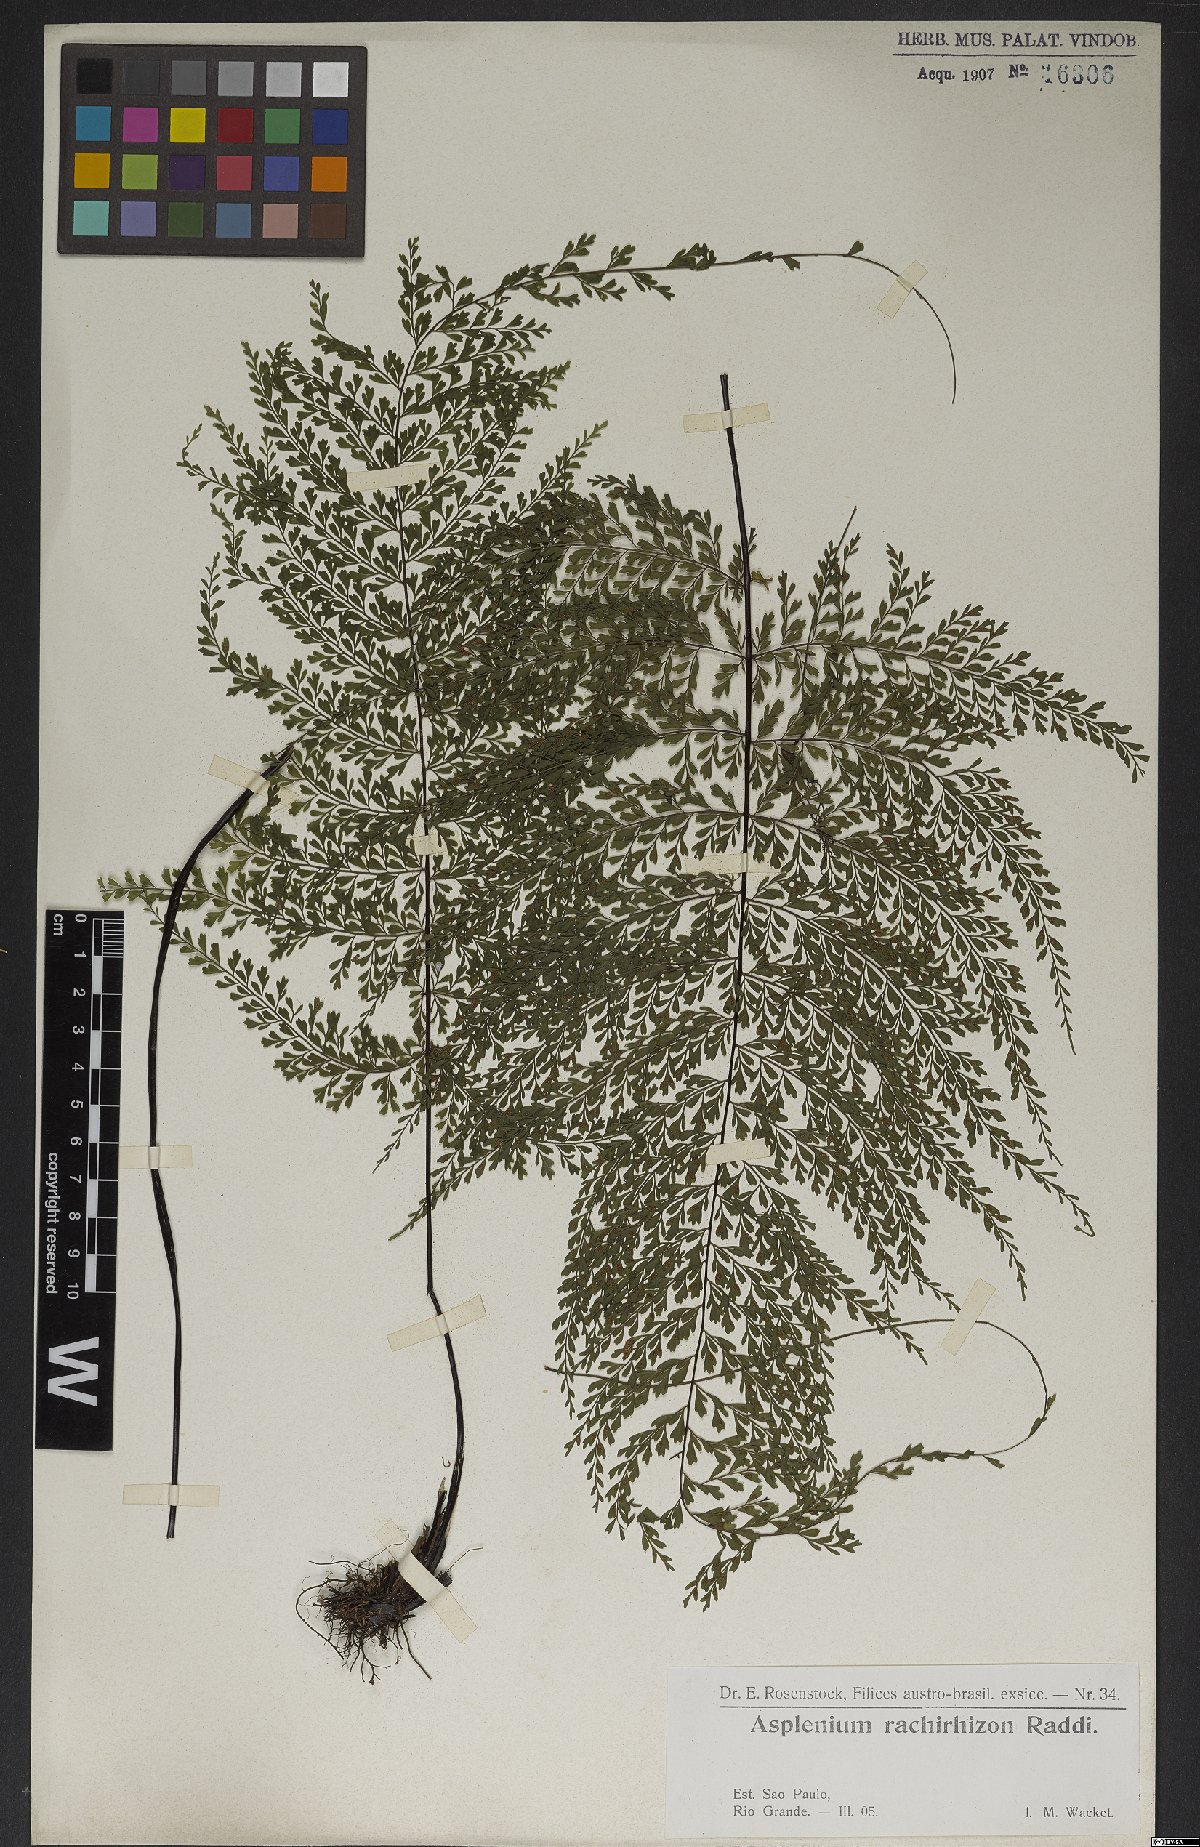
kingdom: Plantae
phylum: Tracheophyta
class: Polypodiopsida
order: Polypodiales
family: Aspleniaceae
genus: Asplenium
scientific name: Asplenium uniseriale
